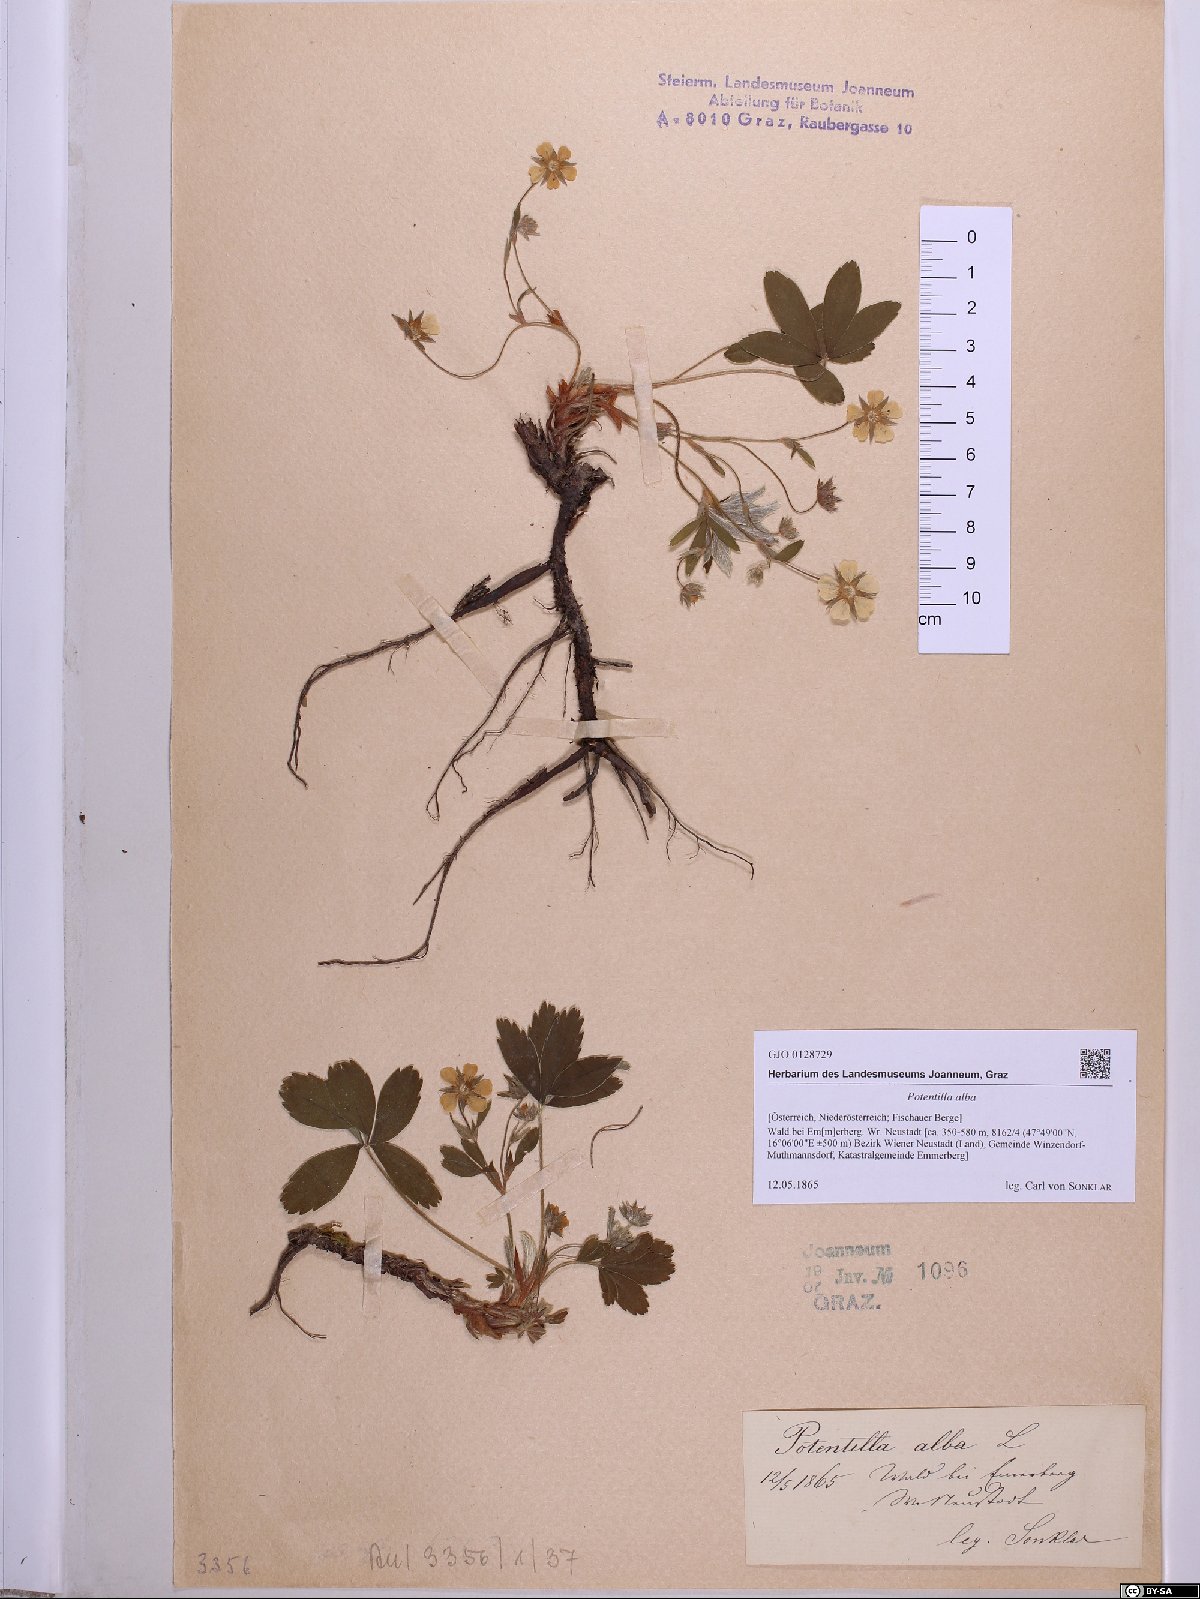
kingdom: Plantae
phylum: Tracheophyta
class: Magnoliopsida
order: Rosales
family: Rosaceae
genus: Potentilla
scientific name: Potentilla alba
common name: White cinquefoil
